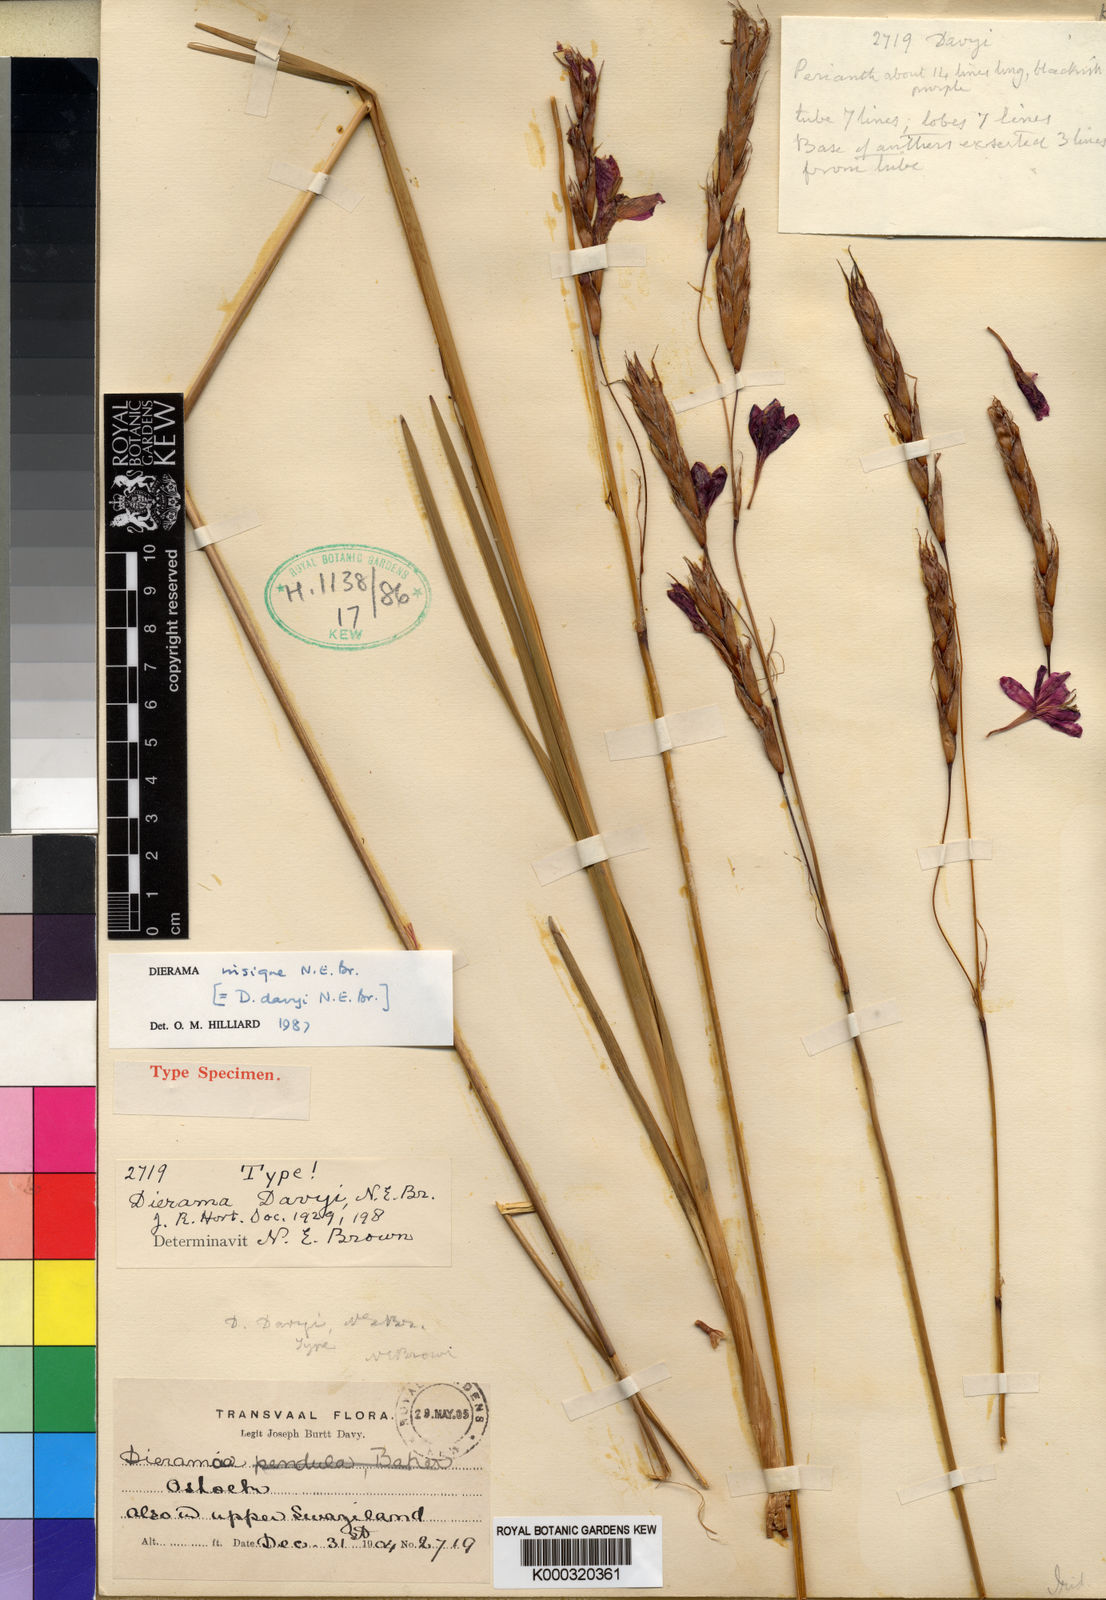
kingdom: Plantae
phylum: Tracheophyta
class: Liliopsida
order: Asparagales
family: Iridaceae
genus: Dierama
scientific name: Dierama insigne
